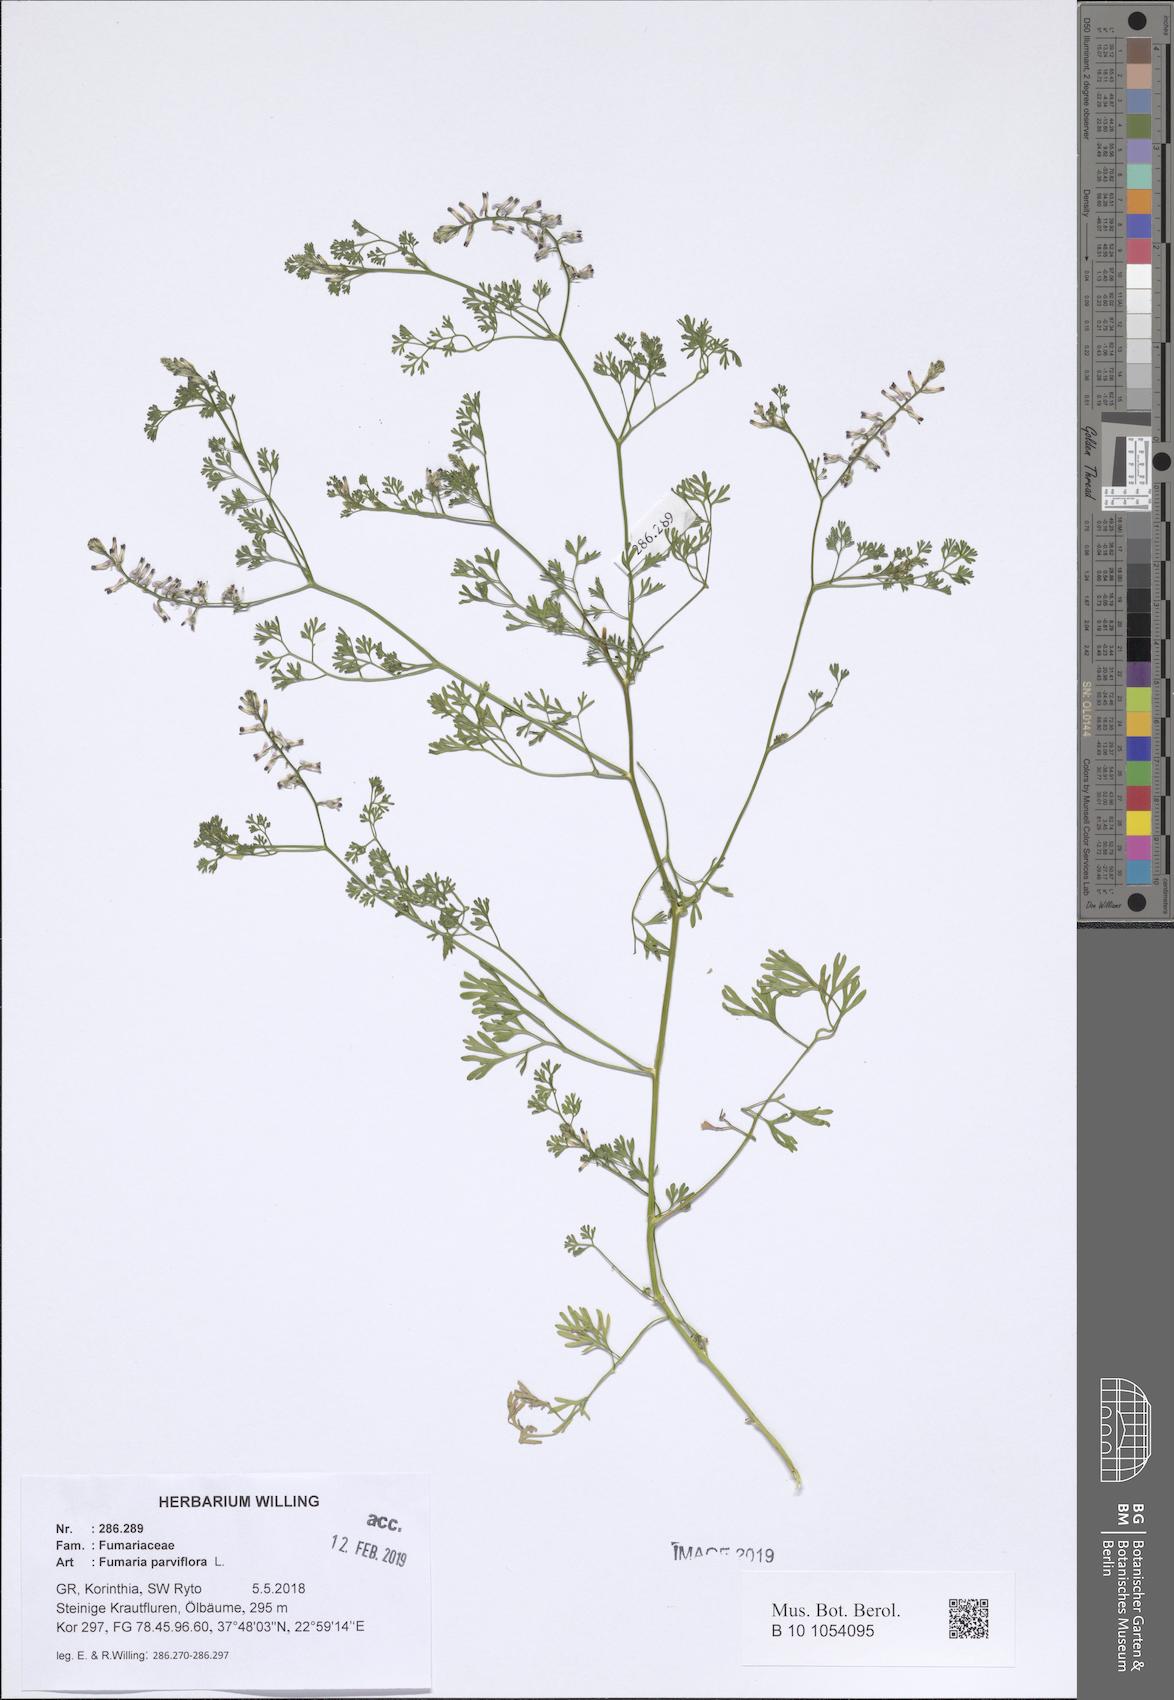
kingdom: Plantae
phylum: Tracheophyta
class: Magnoliopsida
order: Ranunculales
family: Papaveraceae
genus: Fumaria
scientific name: Fumaria parviflora
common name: Fine-leaved fumitory
